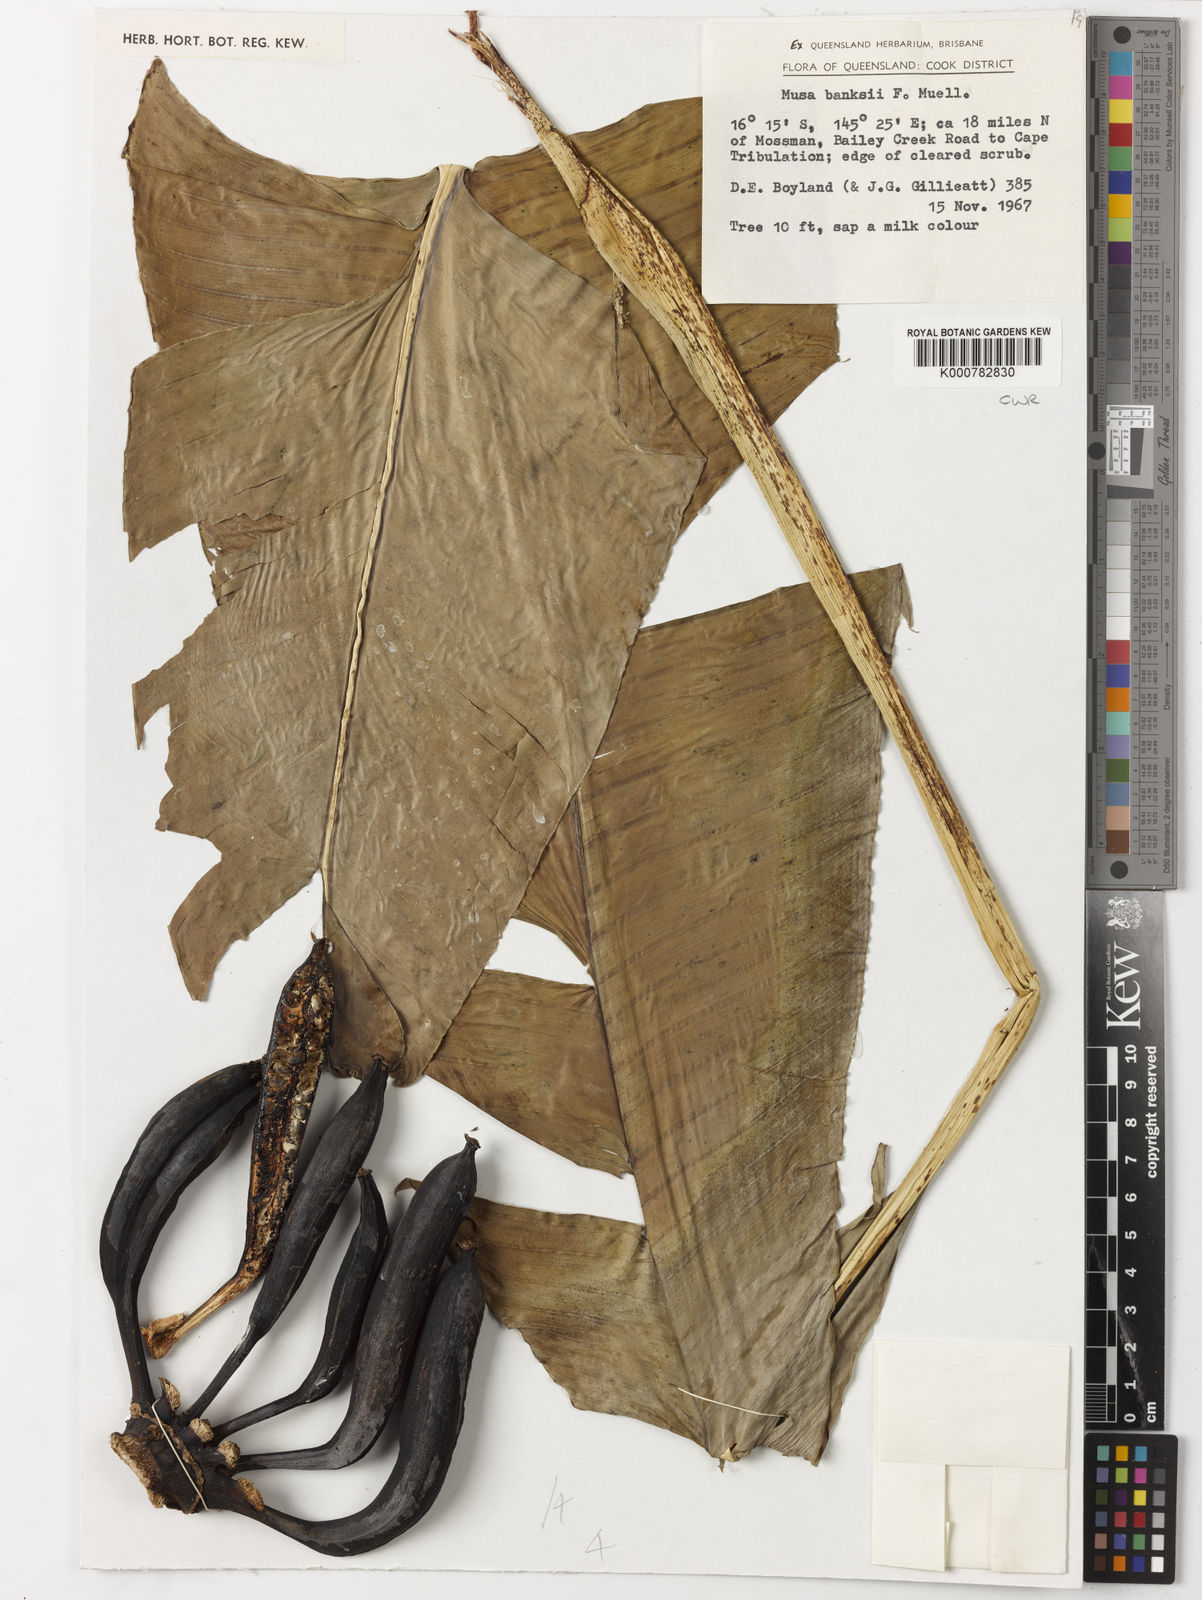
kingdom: Plantae
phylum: Tracheophyta
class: Liliopsida
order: Zingiberales
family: Musaceae
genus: Musa
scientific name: Musa banksii
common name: Maroon-stemmed banana
